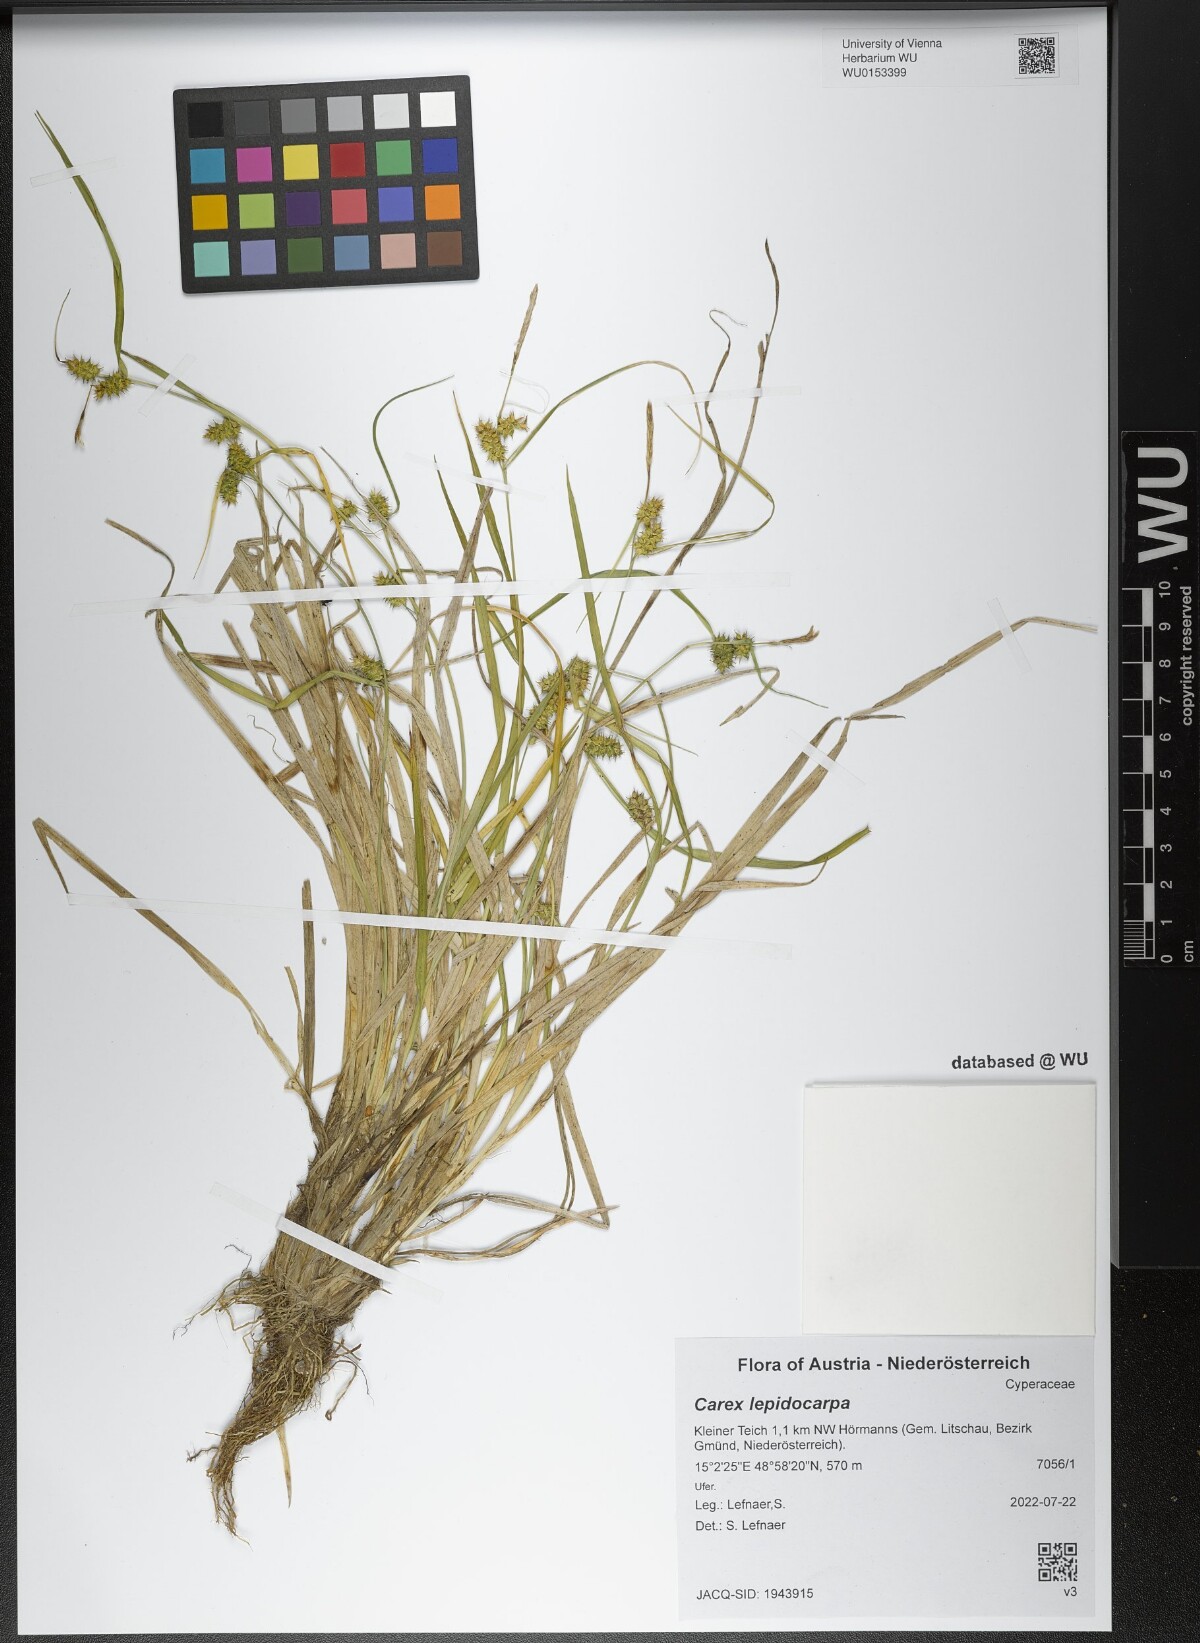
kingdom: Plantae
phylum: Tracheophyta
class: Liliopsida
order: Poales
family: Cyperaceae
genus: Carex
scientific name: Carex lepidocarpa
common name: Long-stalked yellow-sedge
